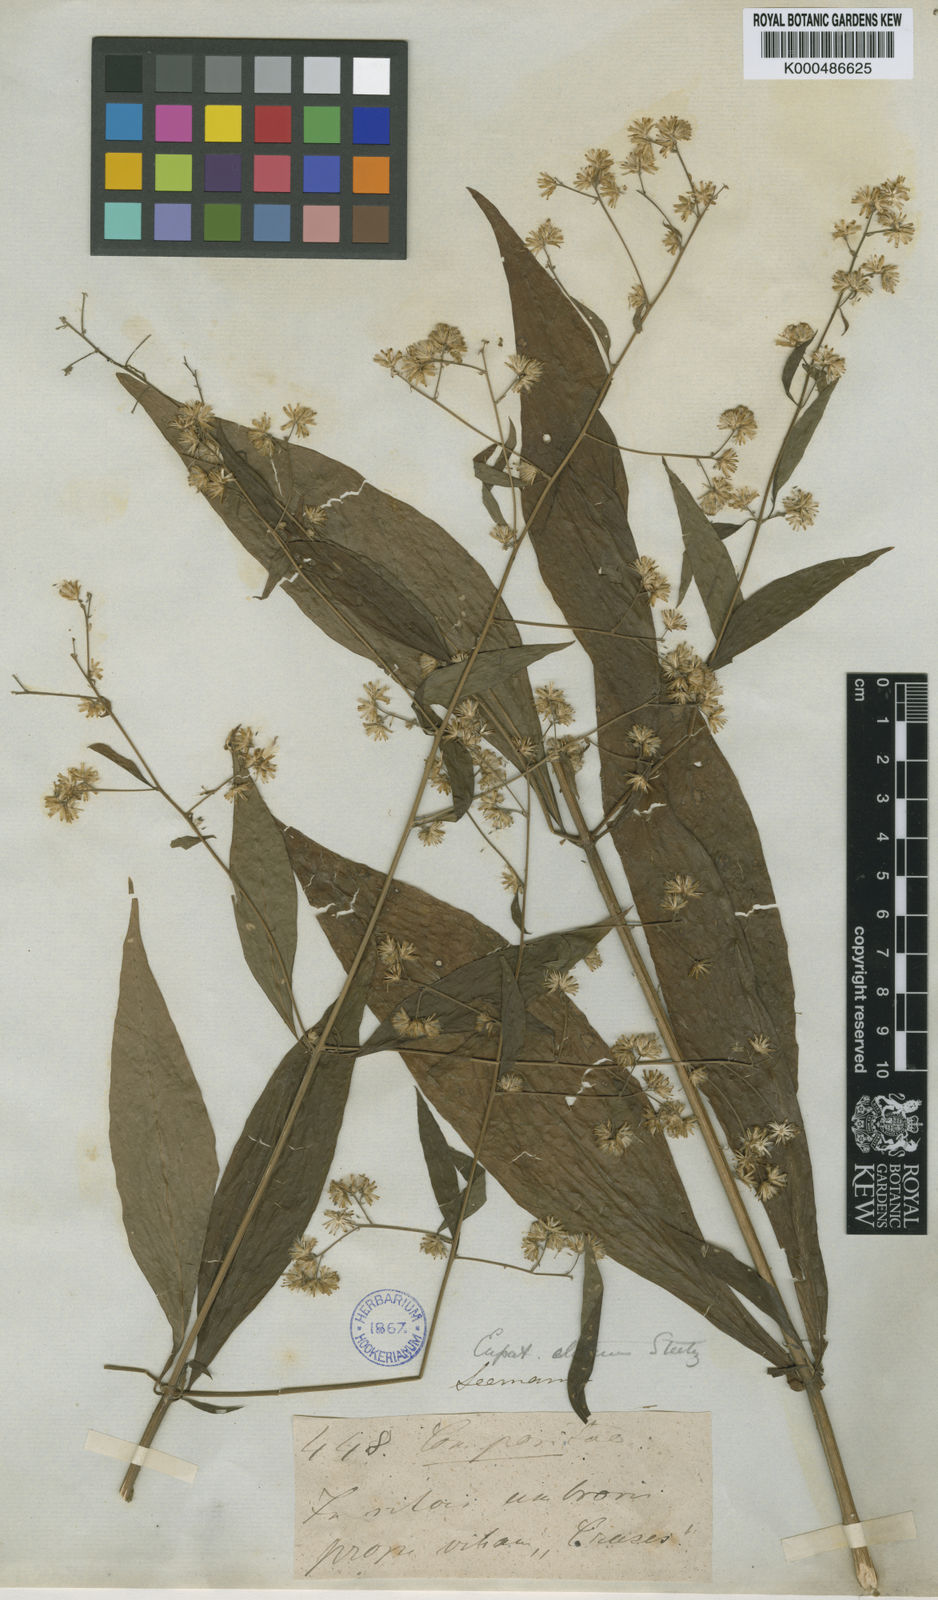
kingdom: Plantae
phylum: Tracheophyta
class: Magnoliopsida
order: Asterales
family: Asteraceae
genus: Ayapana
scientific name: Ayapana elata
